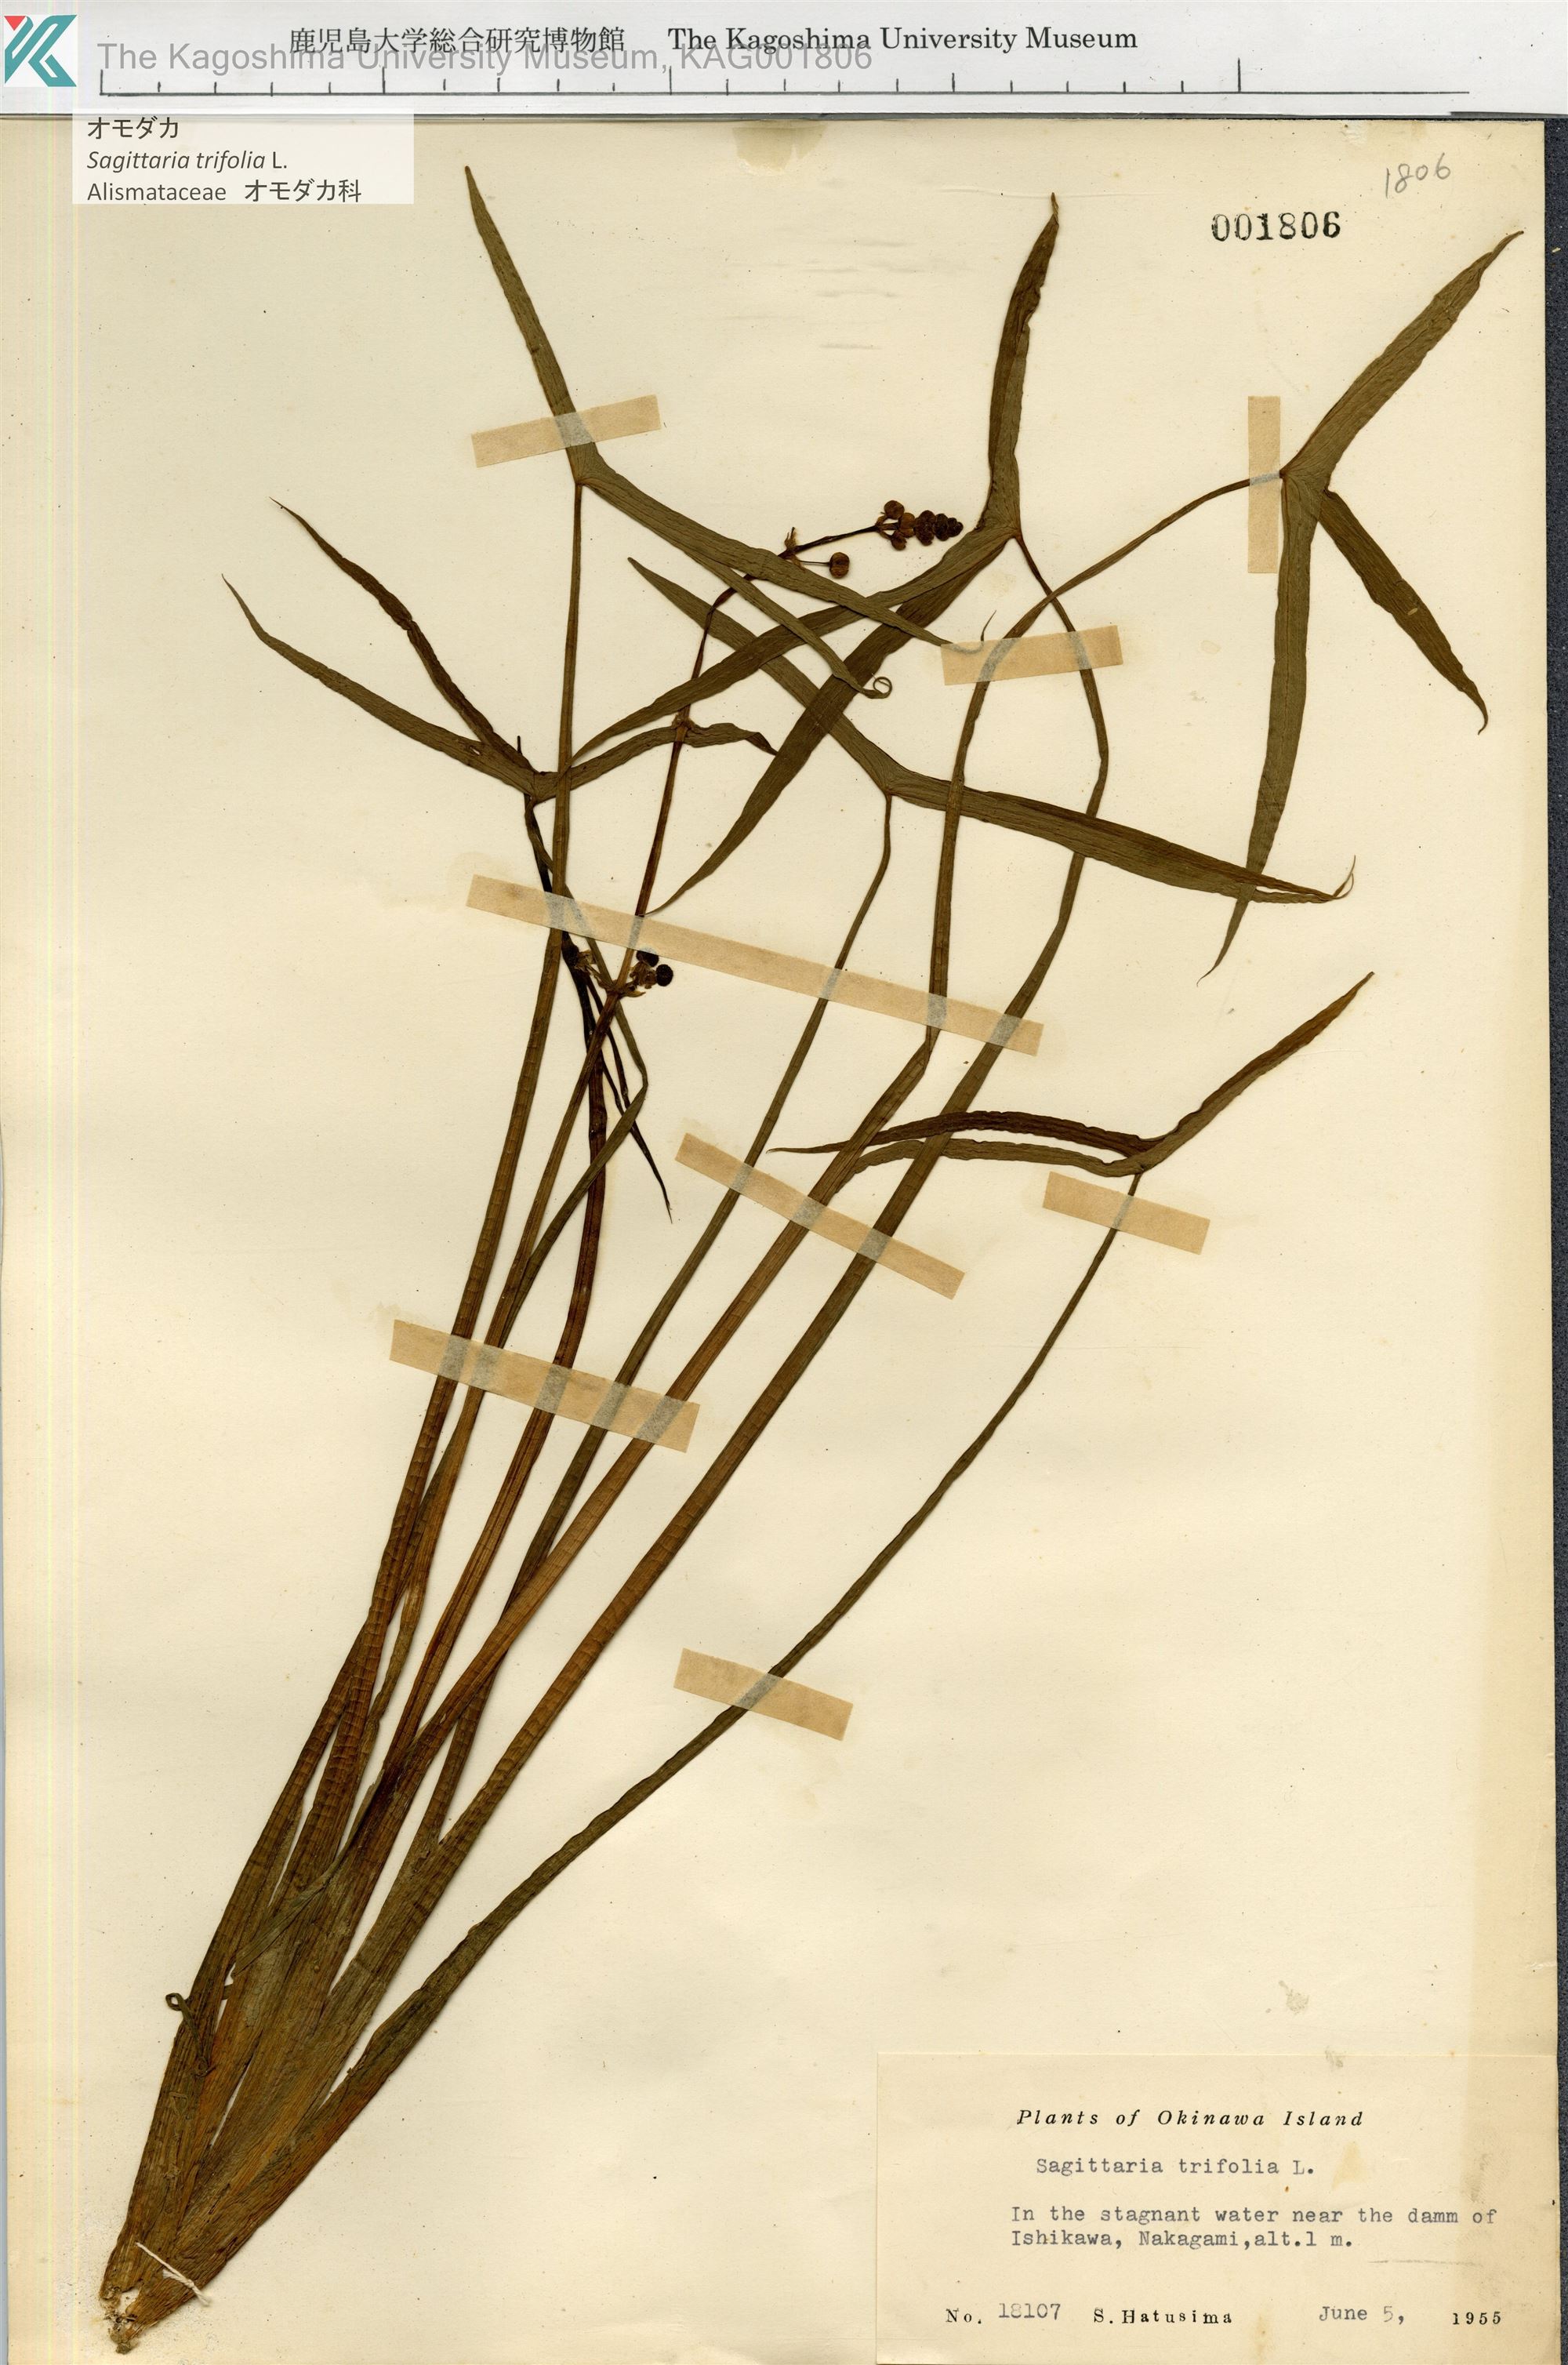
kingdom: Plantae
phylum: Tracheophyta
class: Liliopsida
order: Alismatales
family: Alismataceae
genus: Sagittaria
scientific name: Sagittaria trifolia
